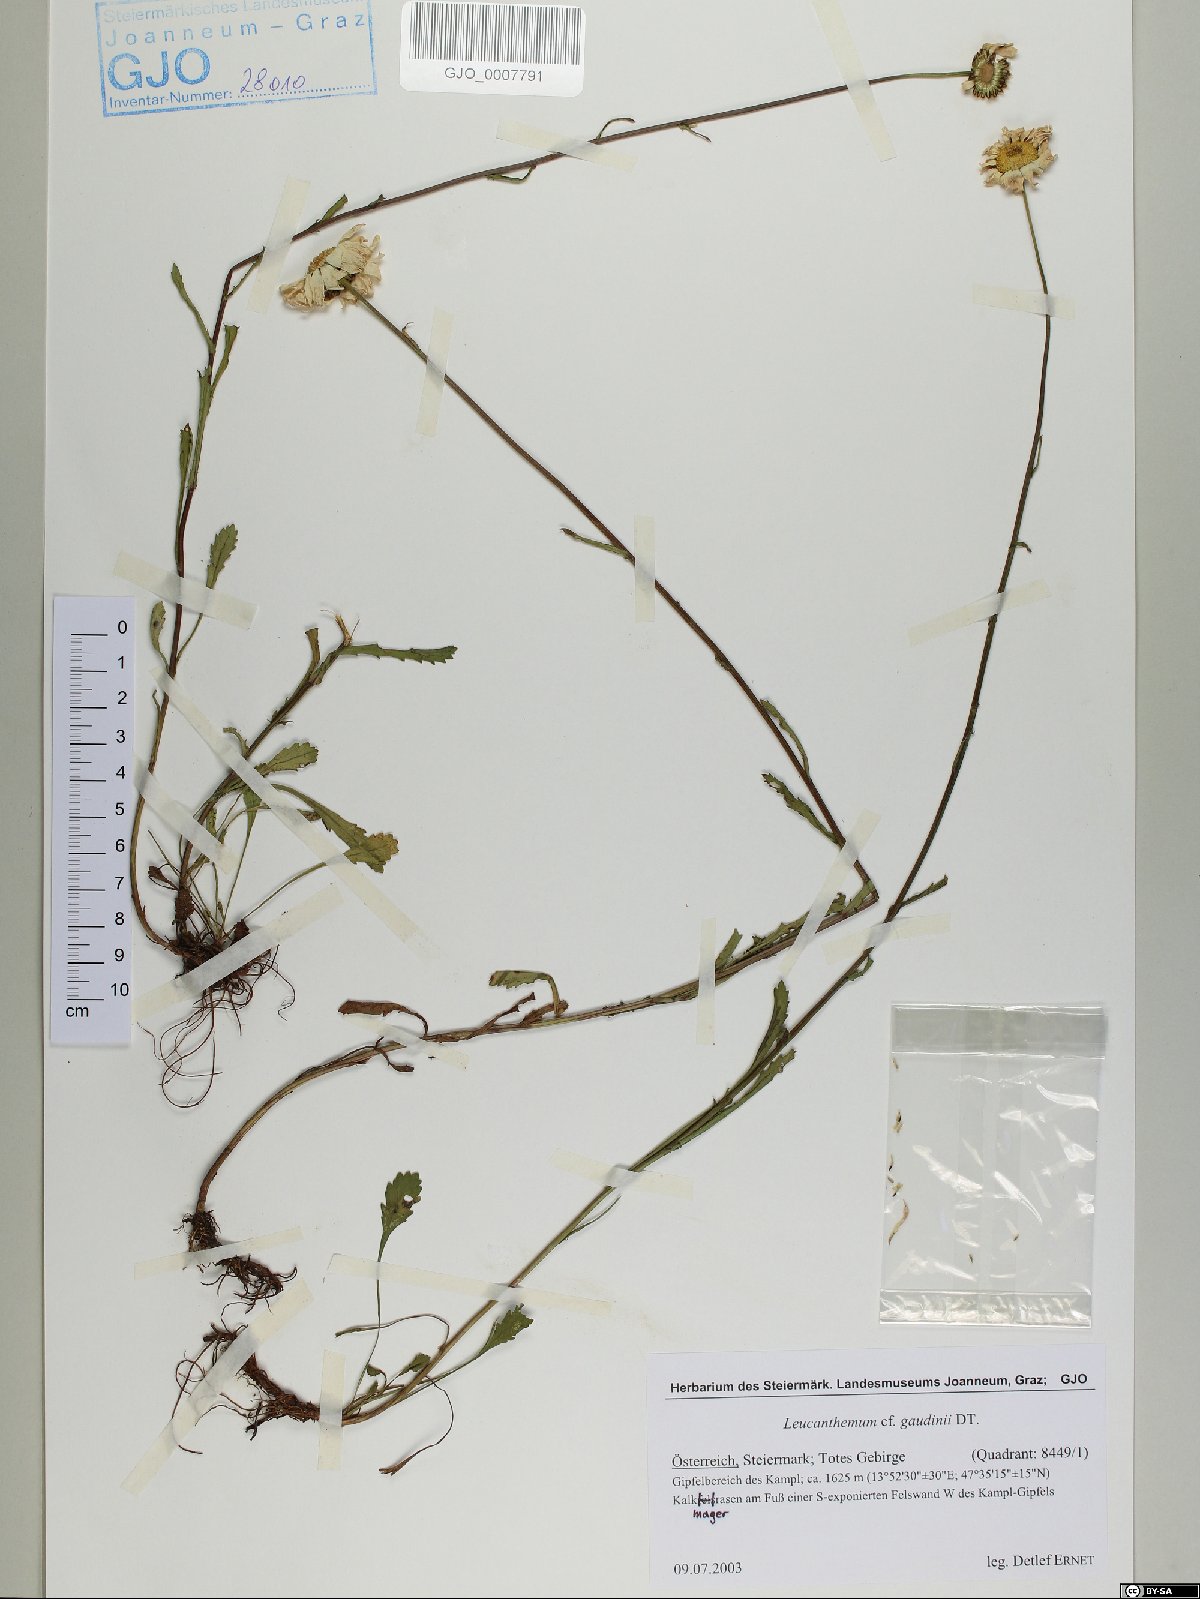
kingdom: Plantae
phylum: Tracheophyta
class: Magnoliopsida
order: Asterales
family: Asteraceae
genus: Leucanthemum
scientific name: Leucanthemum gaudinii
